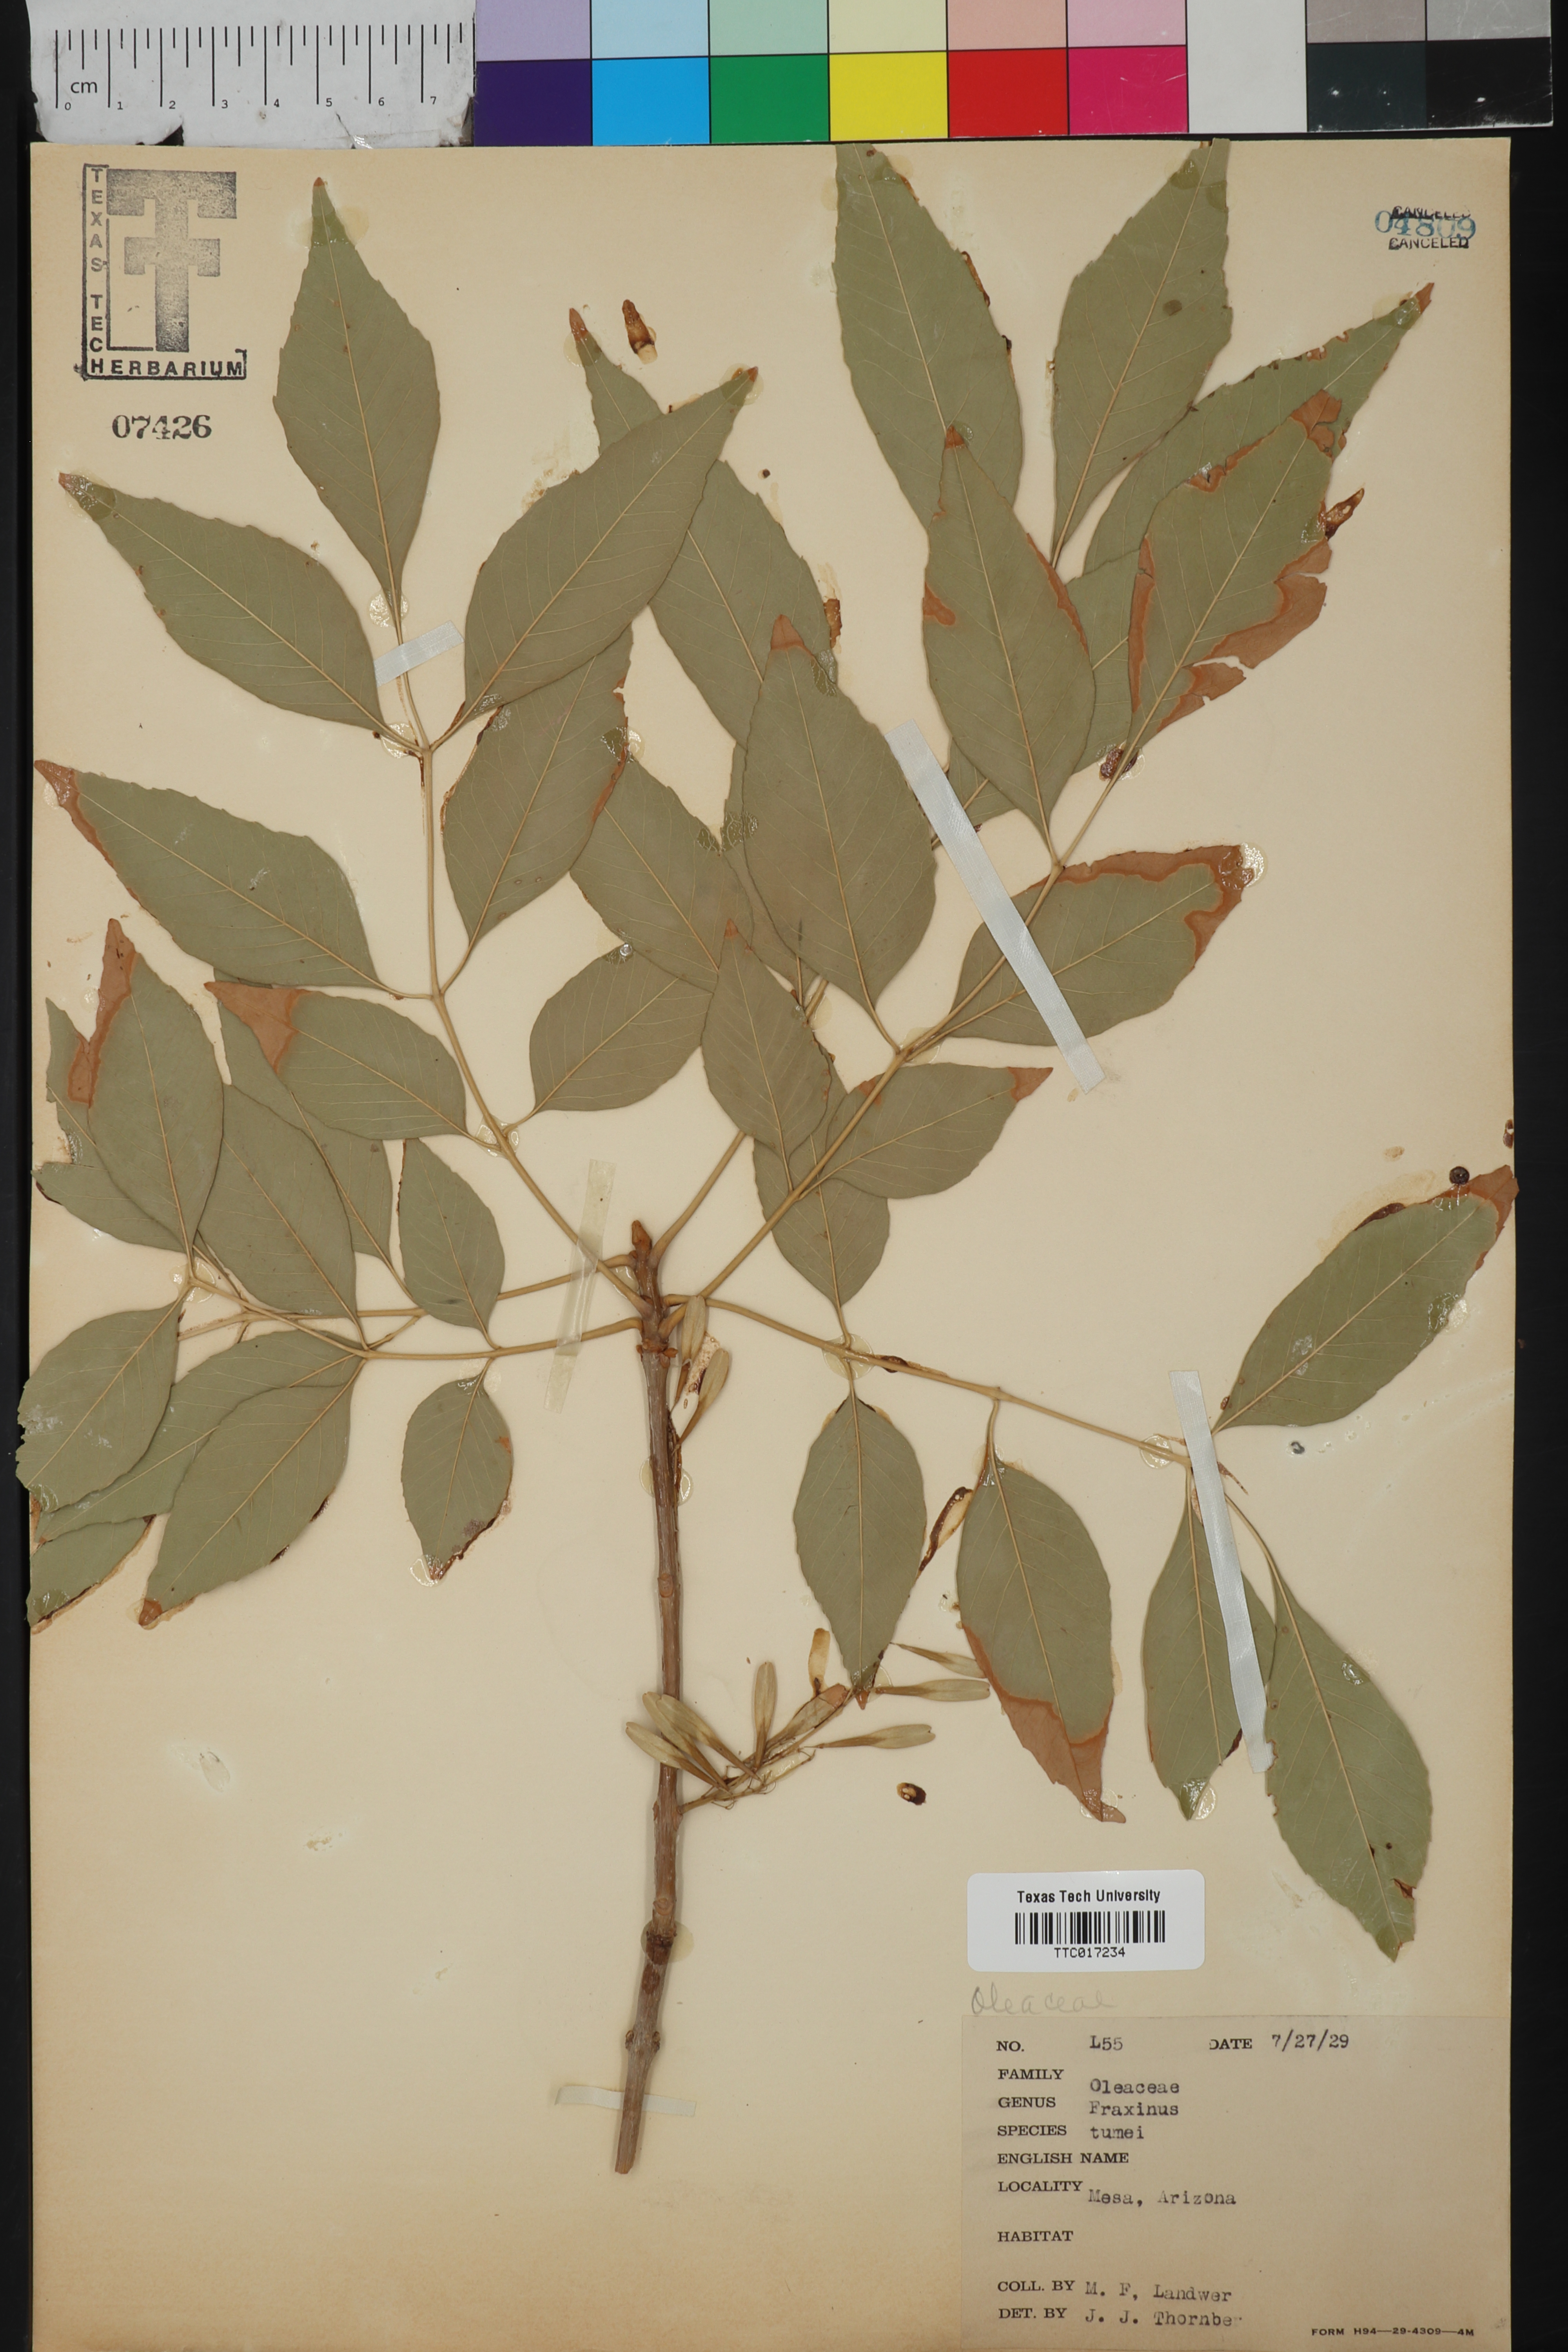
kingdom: Plantae
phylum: Tracheophyta
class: Magnoliopsida
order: Lamiales
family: Oleaceae
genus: Fraxinus
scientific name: Fraxinus velutina
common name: Arizon ash
